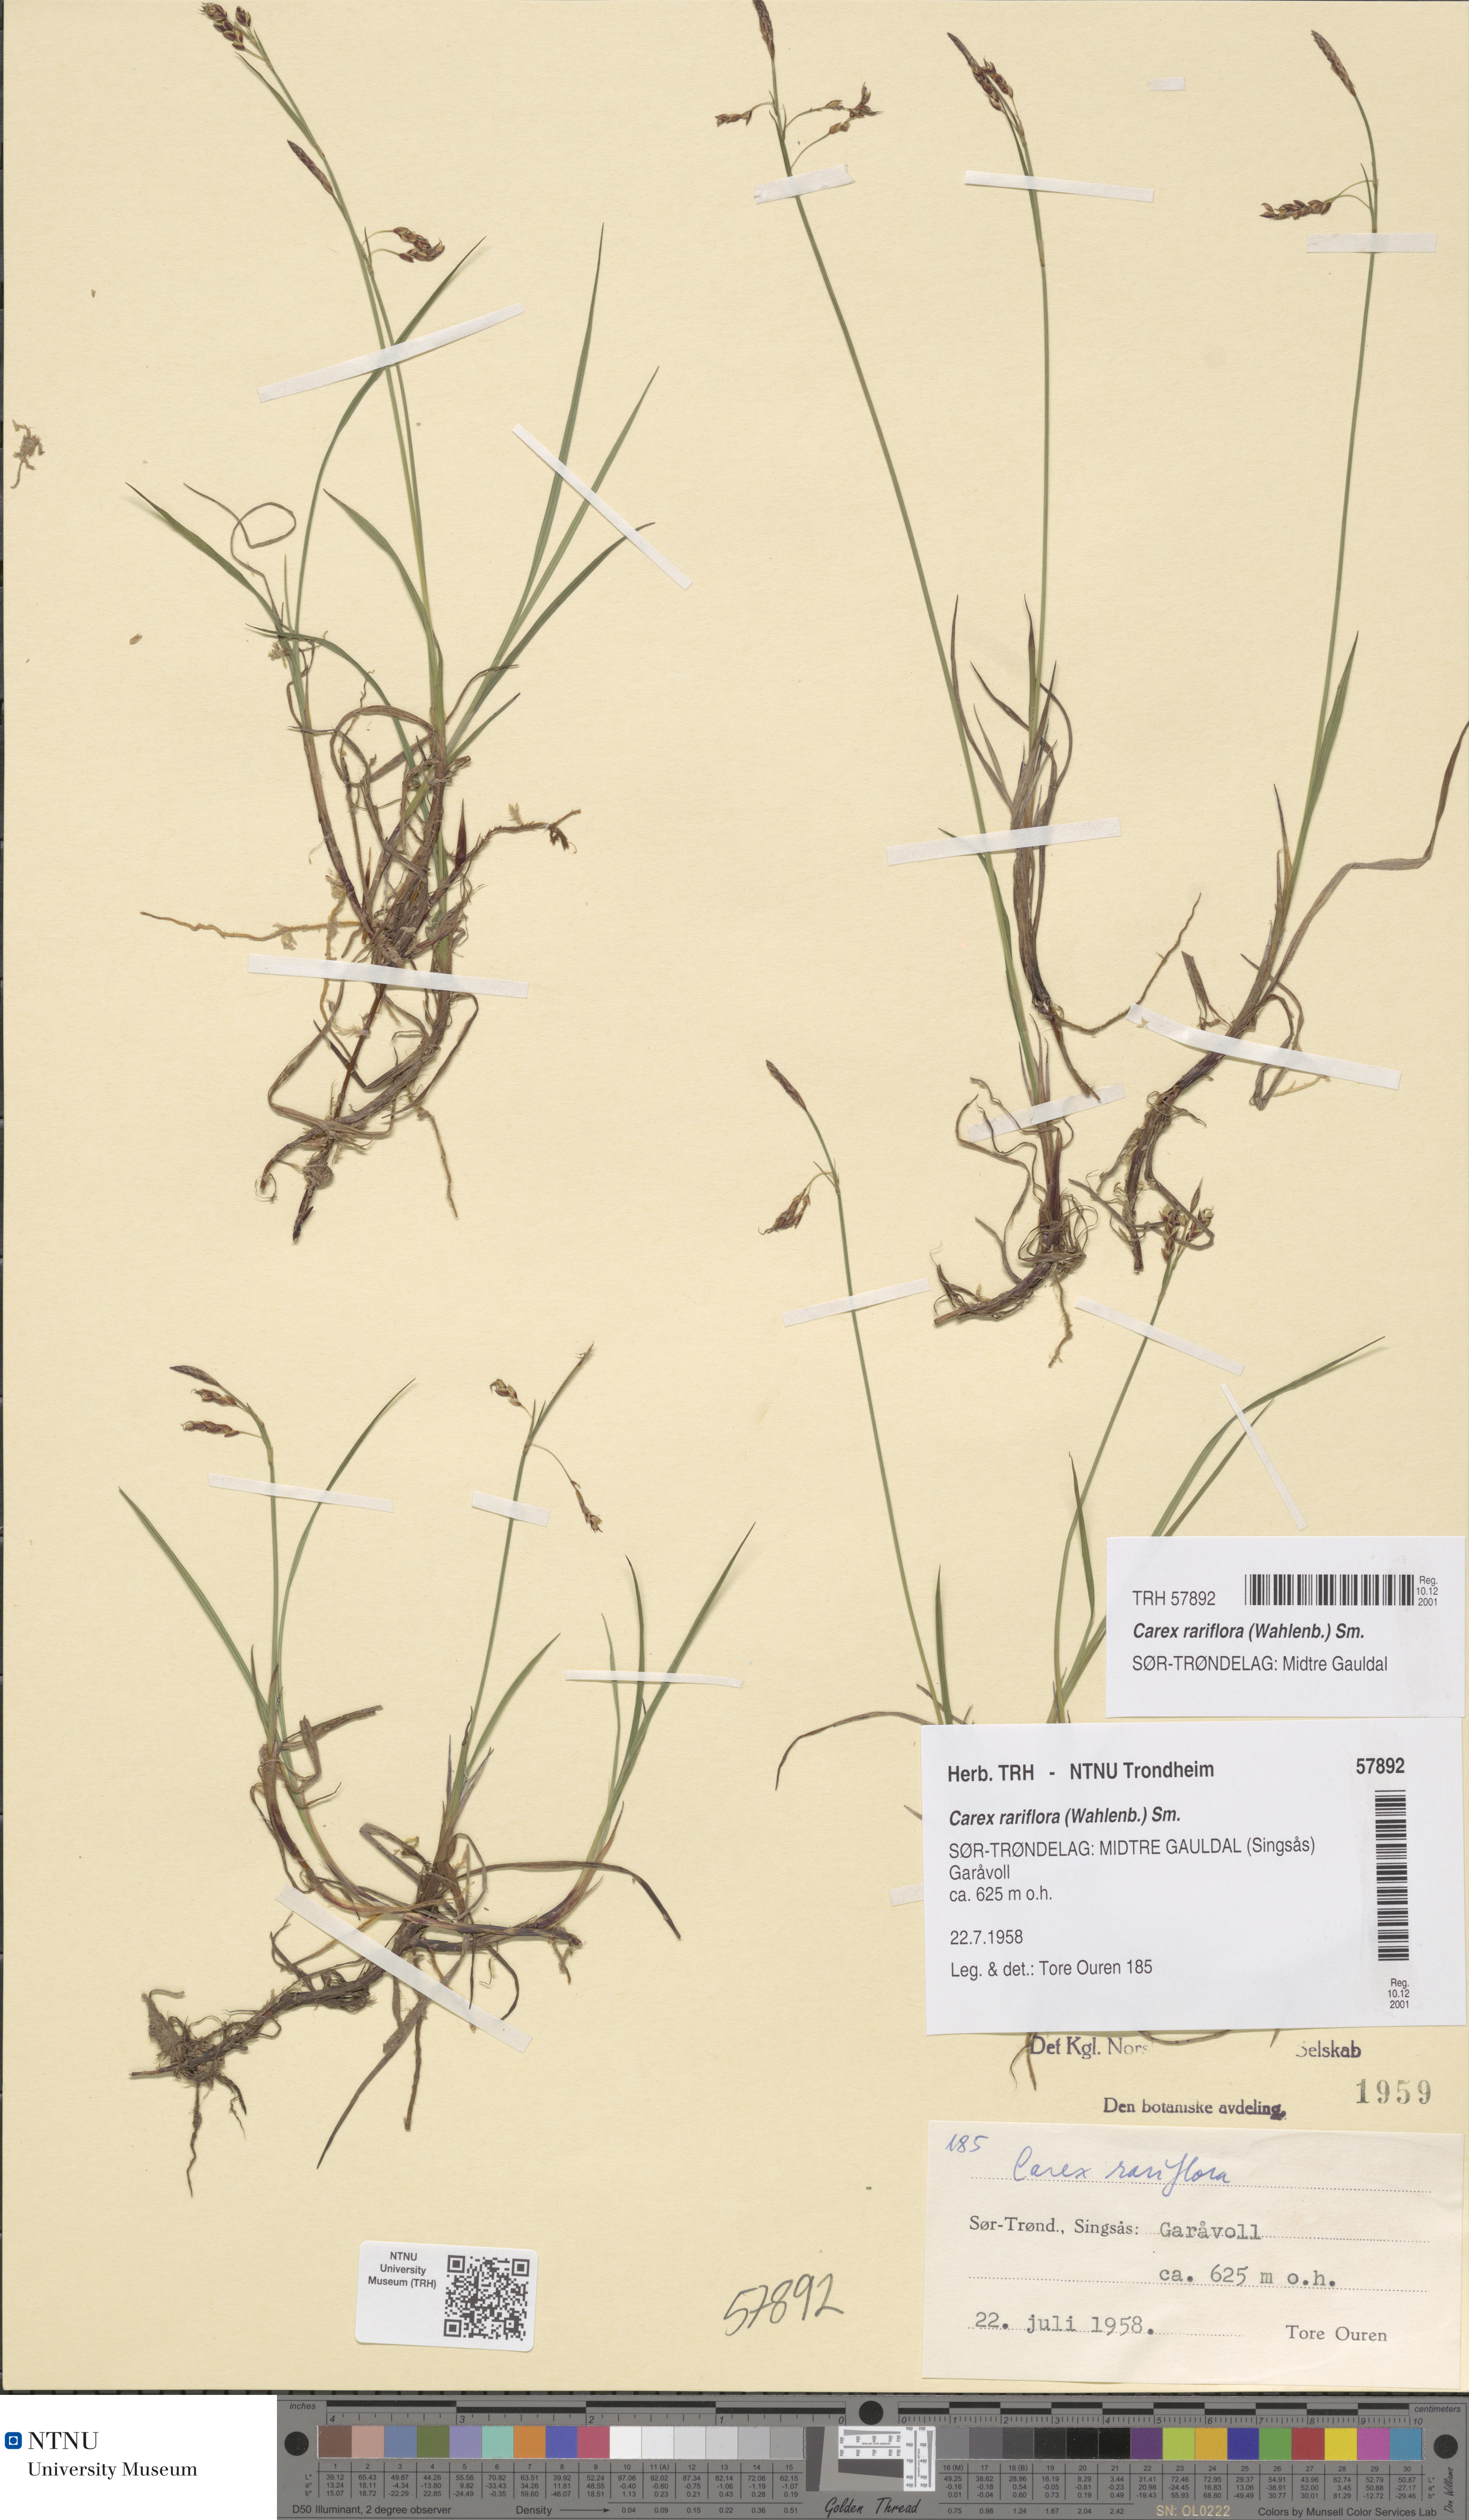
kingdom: Plantae
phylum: Tracheophyta
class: Liliopsida
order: Poales
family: Cyperaceae
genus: Carex
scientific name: Carex rariflora
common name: Loose-flowered alpine sedge
